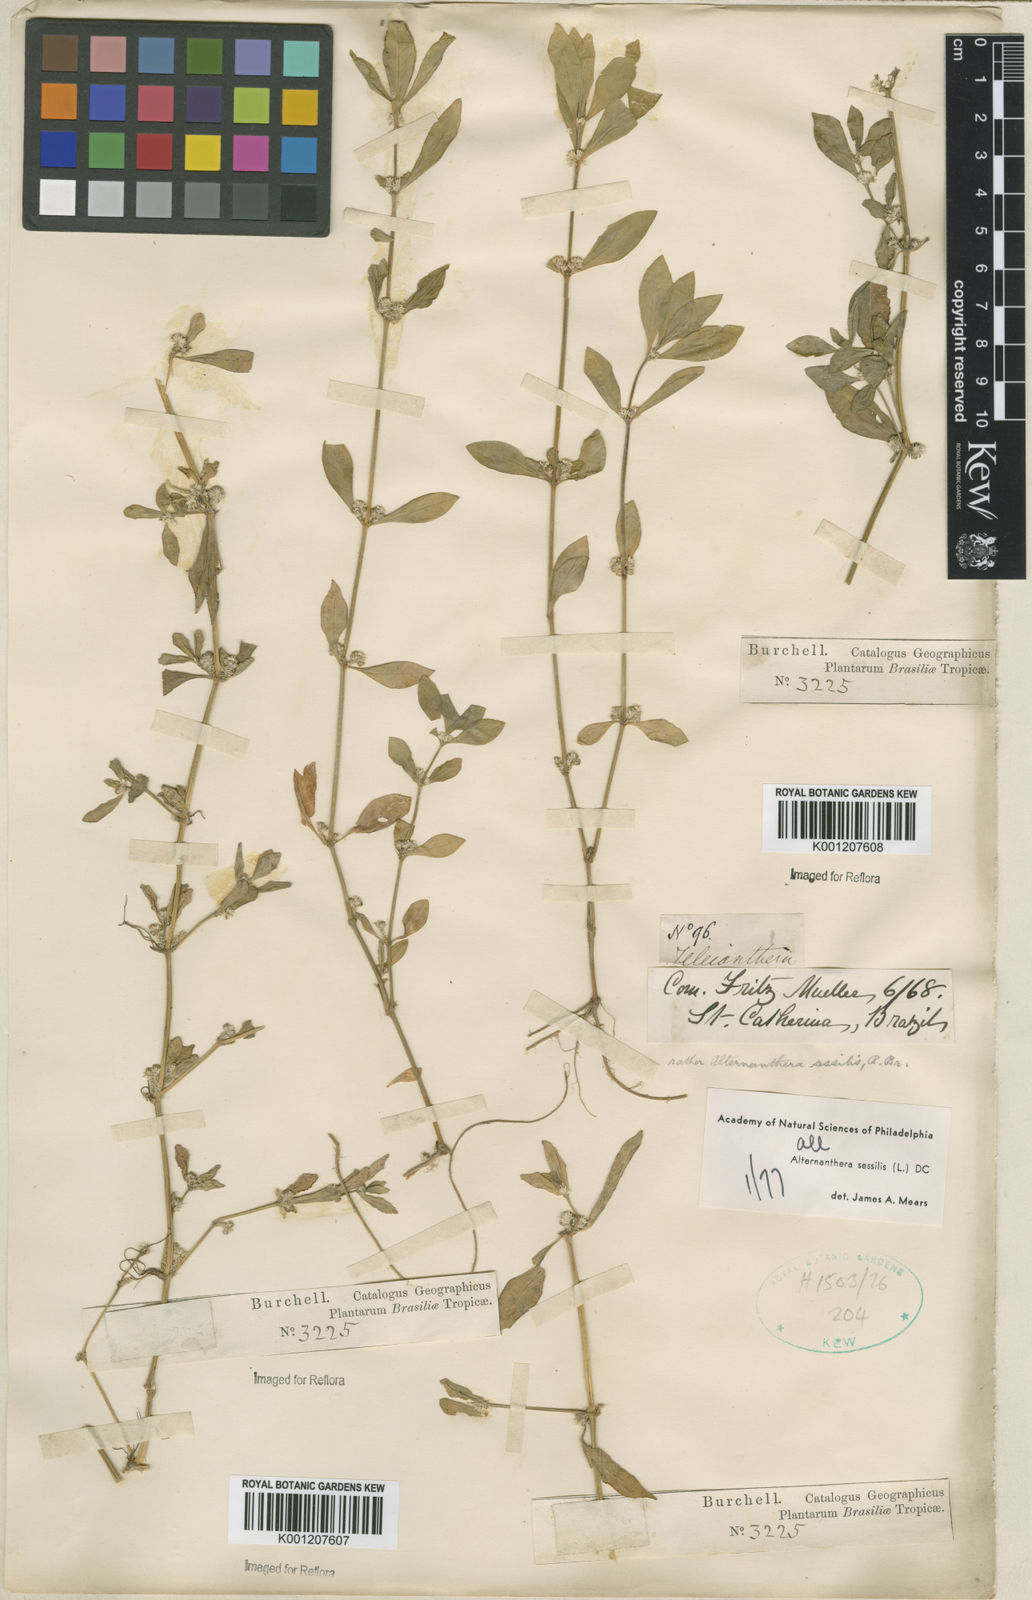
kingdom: Plantae
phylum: Tracheophyta
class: Magnoliopsida
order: Caryophyllales
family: Amaranthaceae
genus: Alternanthera
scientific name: Alternanthera
